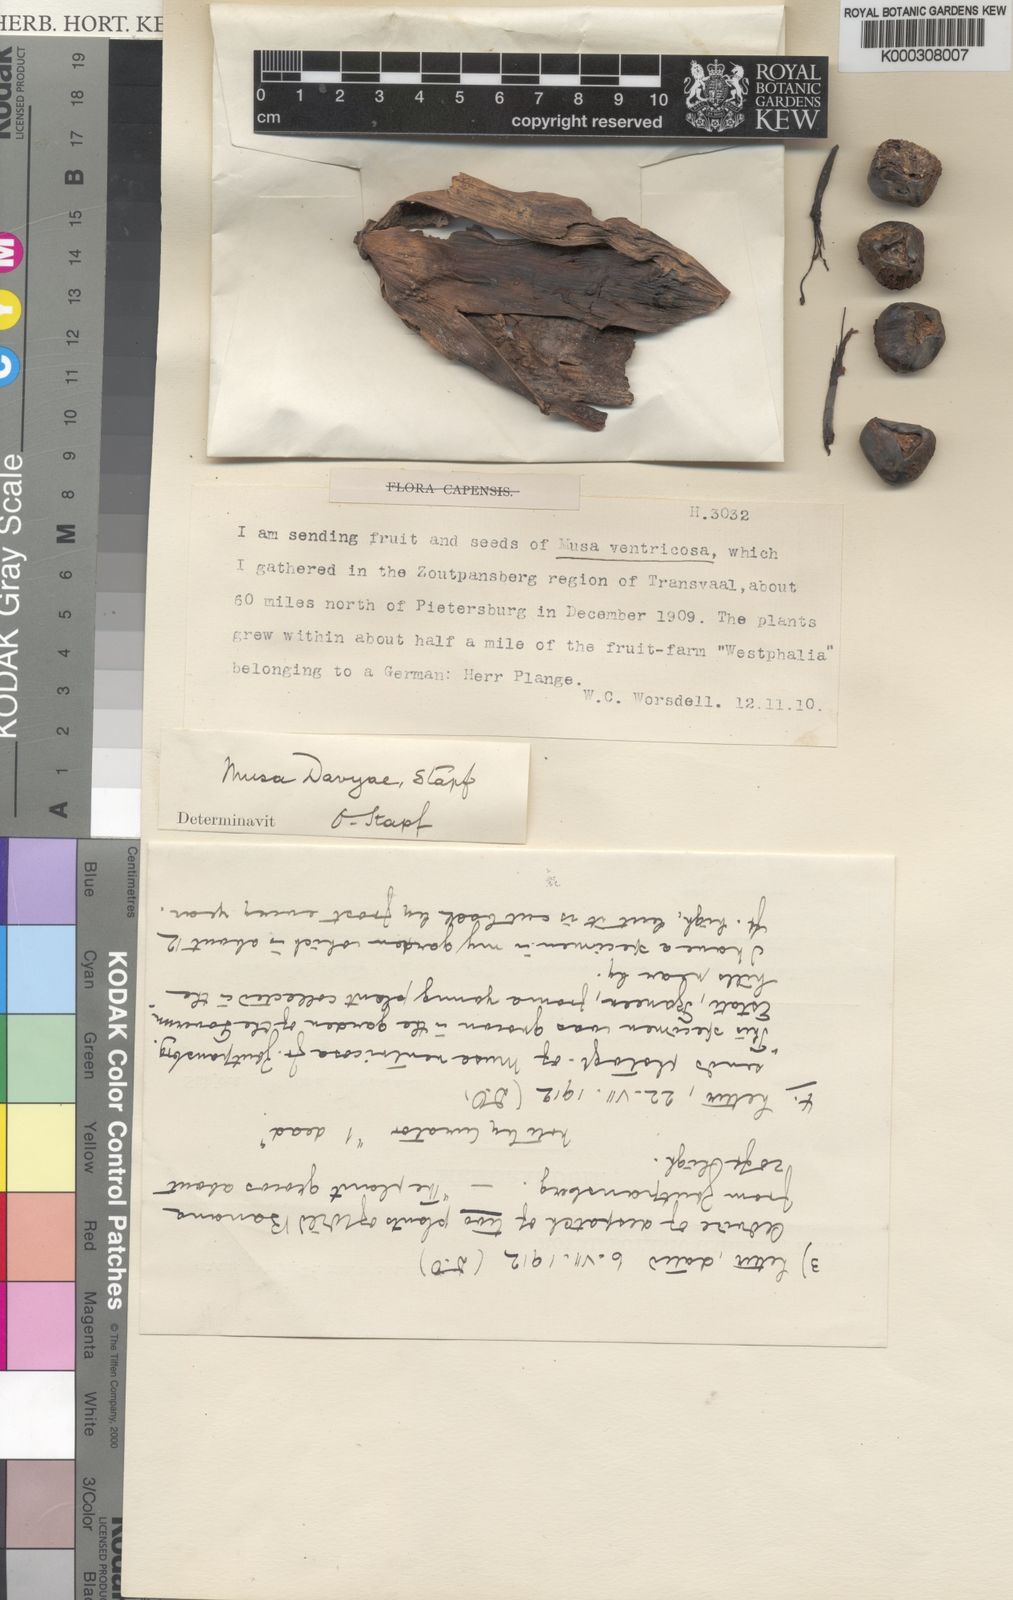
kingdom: Plantae
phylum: Tracheophyta
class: Liliopsida
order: Zingiberales
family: Musaceae
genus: Ensete
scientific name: Ensete ventricosum
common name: Abyssinian banana
